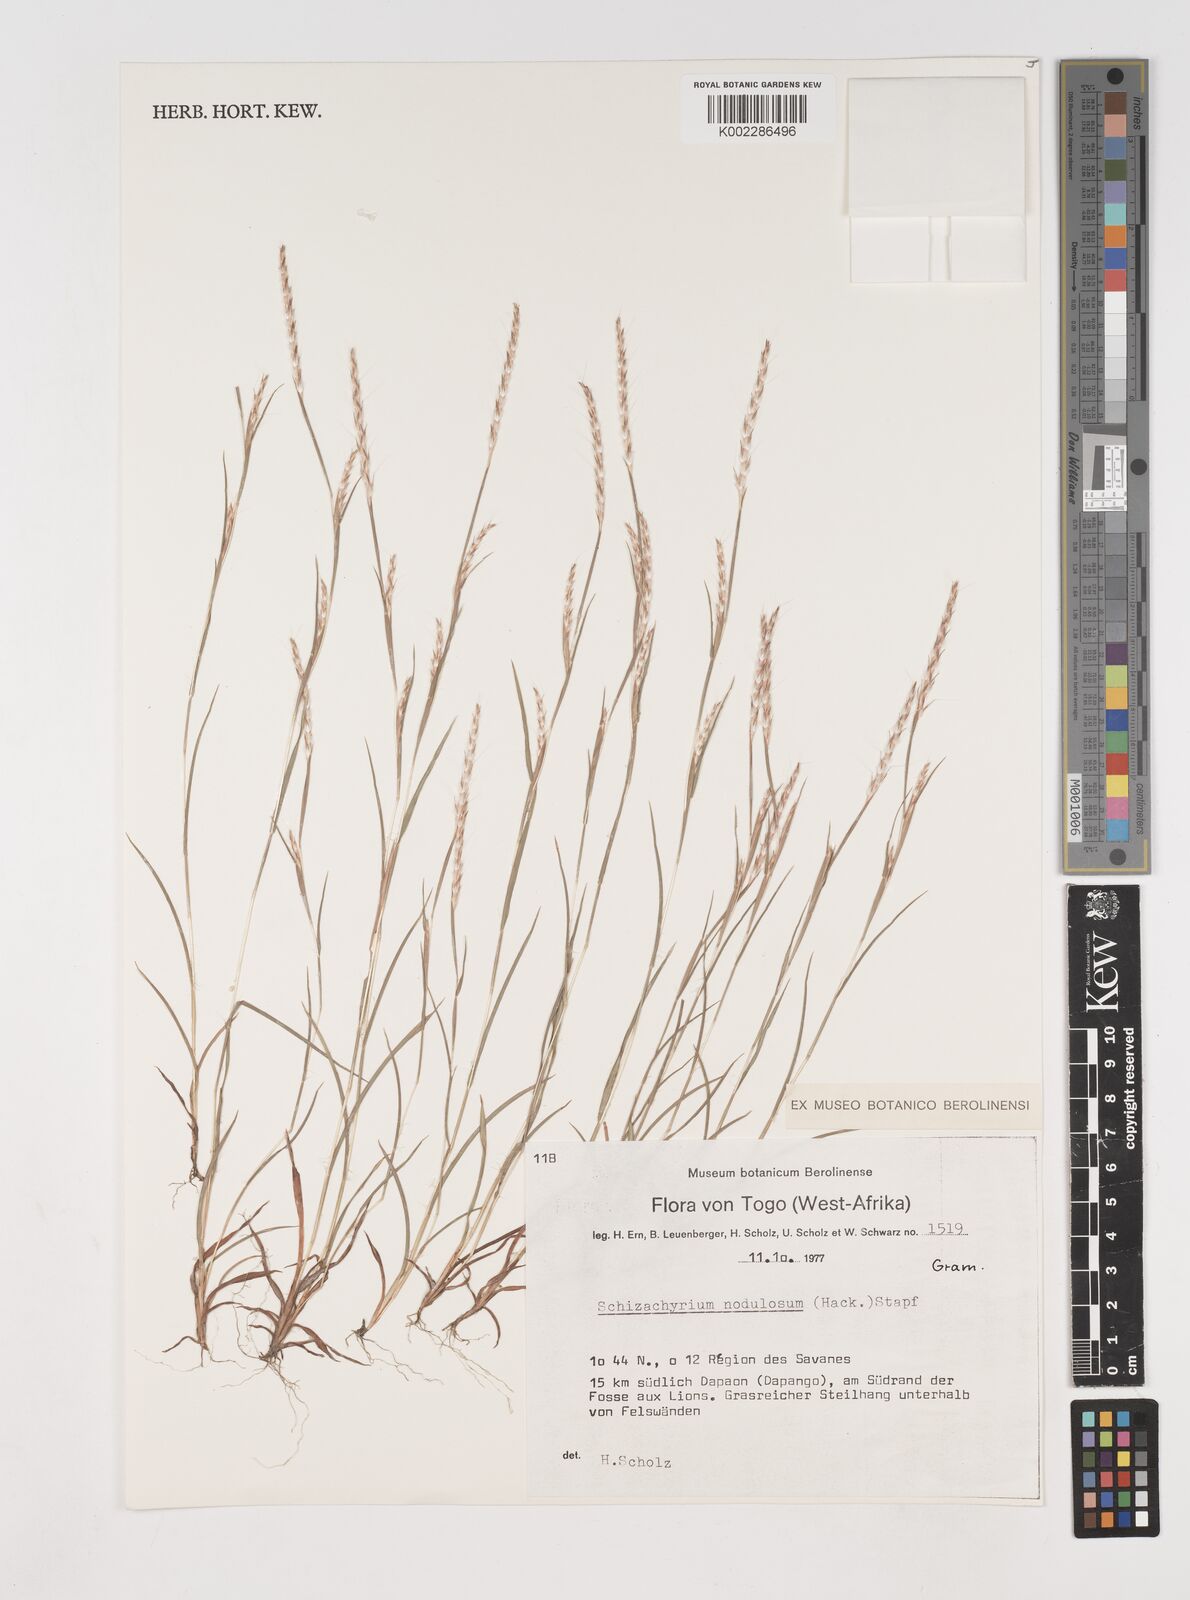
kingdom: Plantae
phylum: Tracheophyta
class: Liliopsida
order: Poales
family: Poaceae
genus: Schizachyrium
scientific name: Schizachyrium nodulosum
